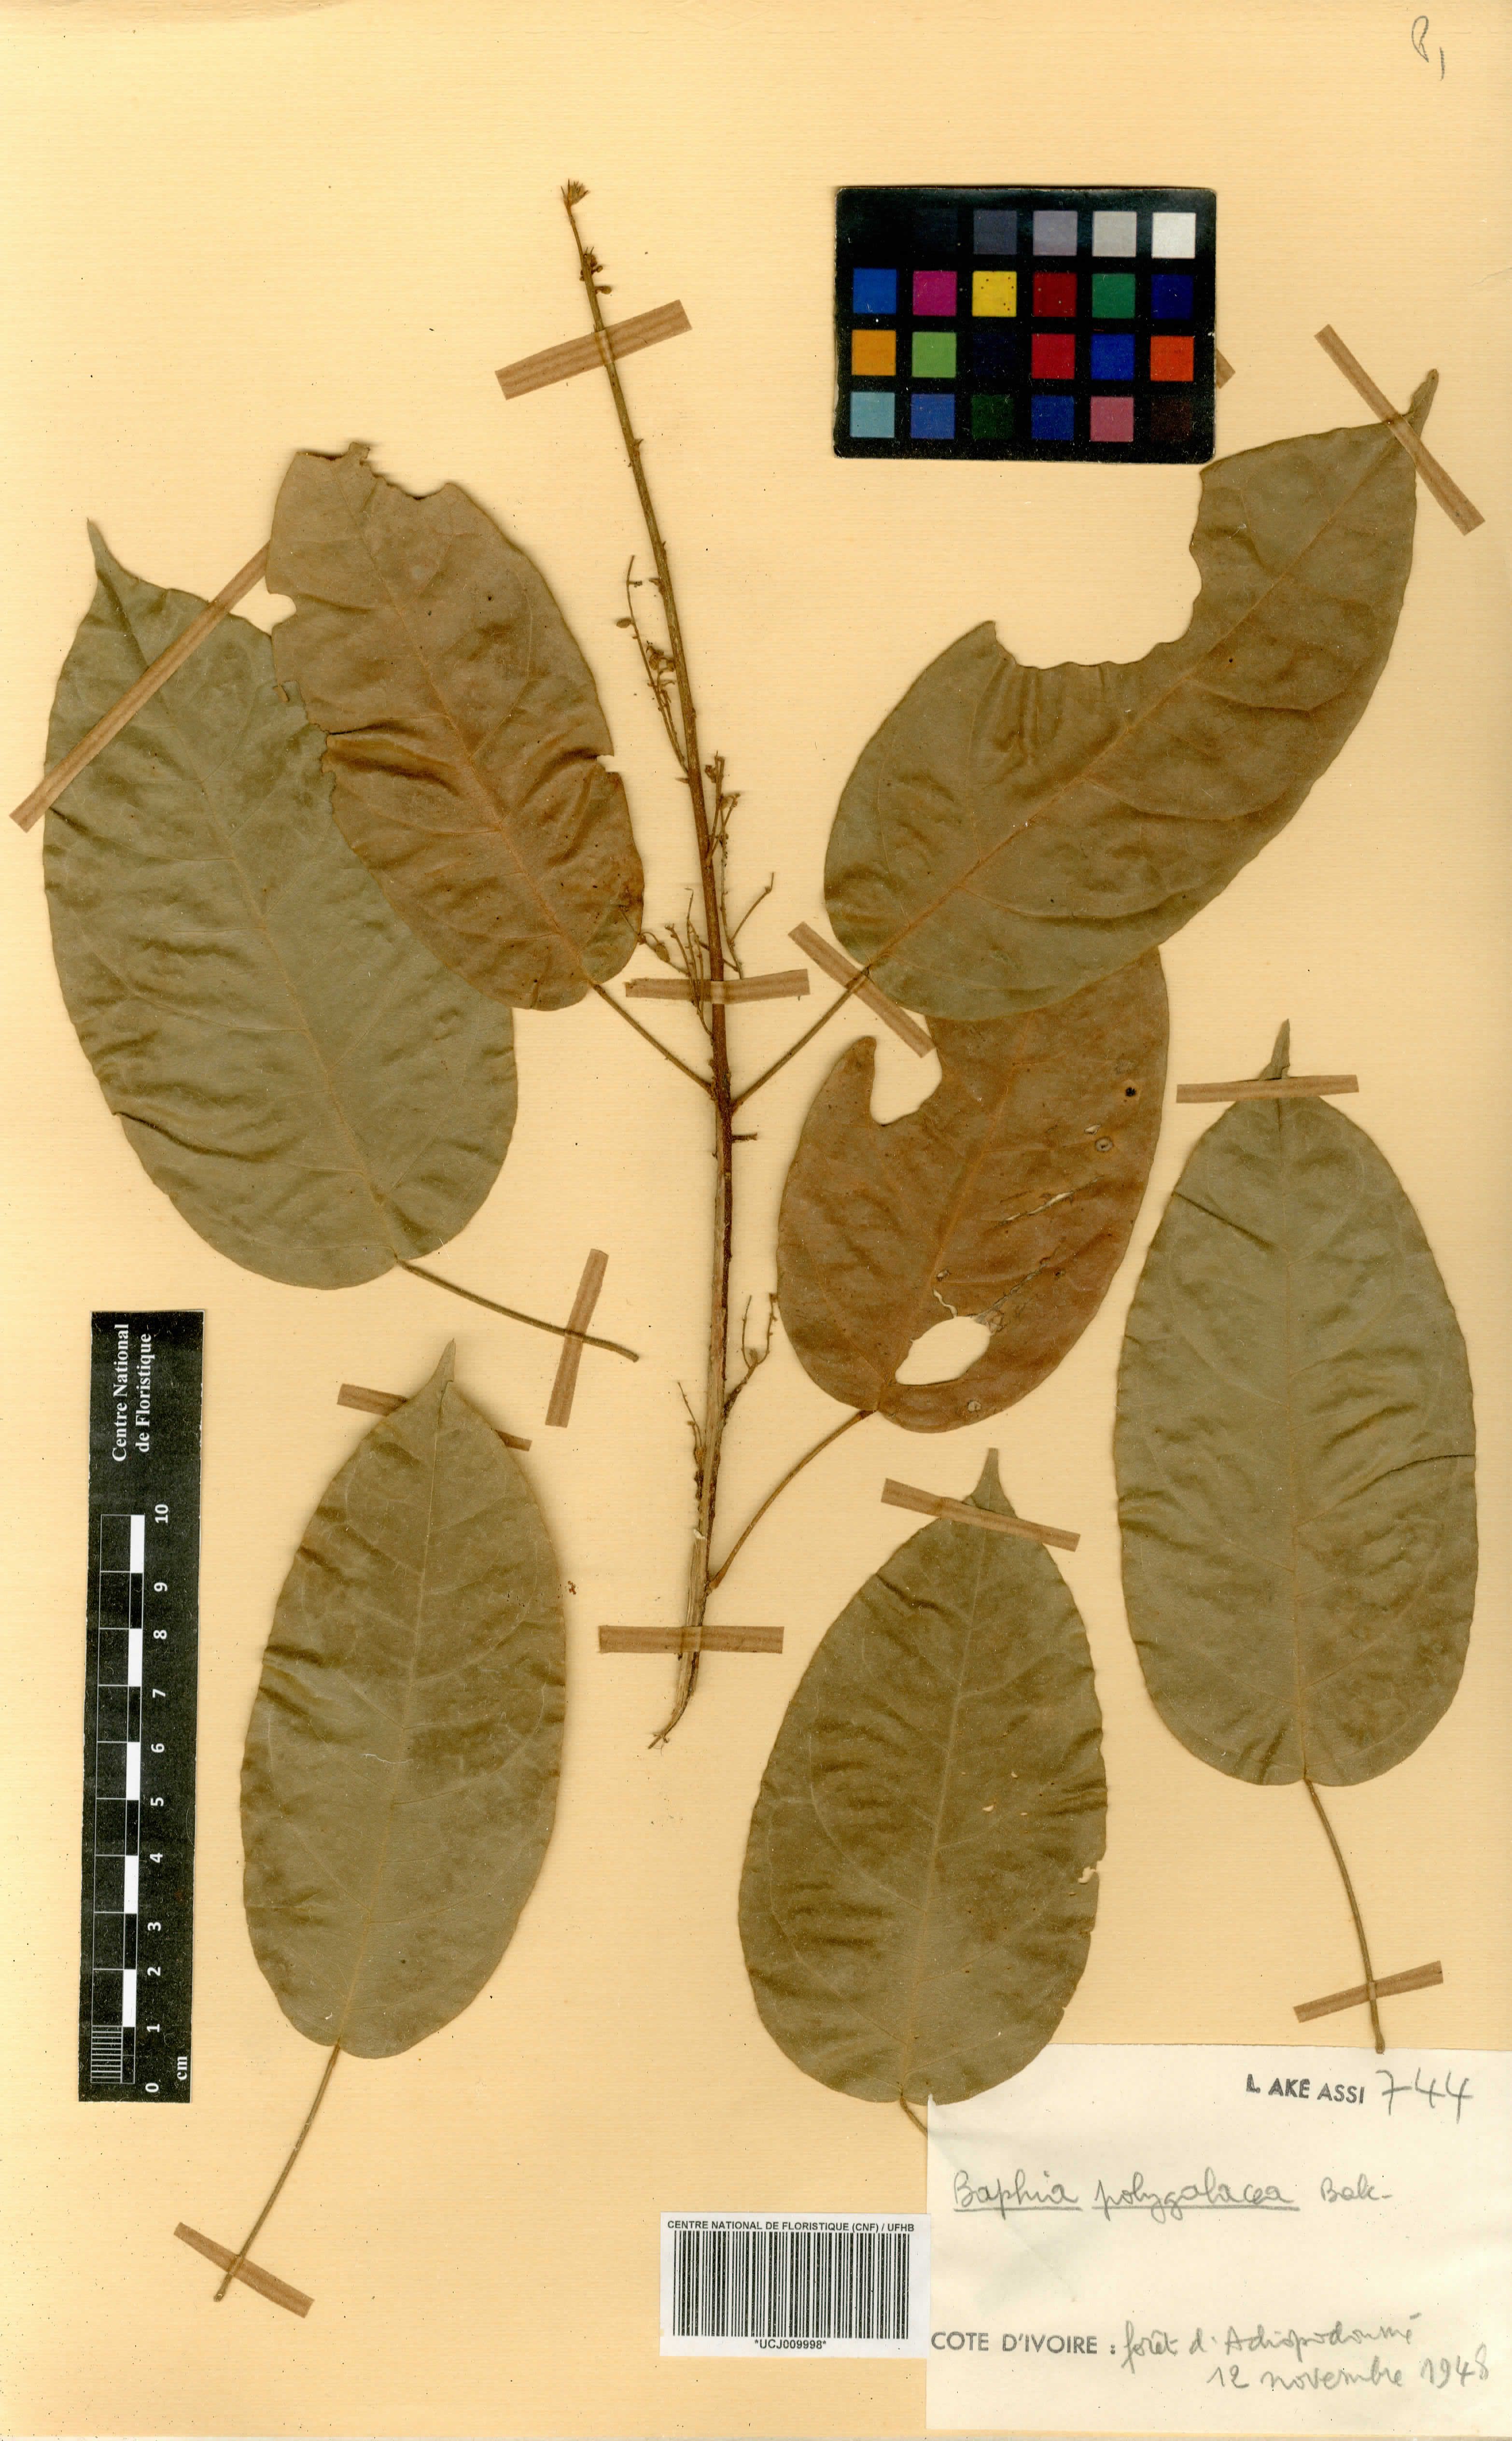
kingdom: Plantae
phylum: Tracheophyta
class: Magnoliopsida
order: Fabales
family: Fabaceae
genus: Baphia
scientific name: Baphia capparidifolia
